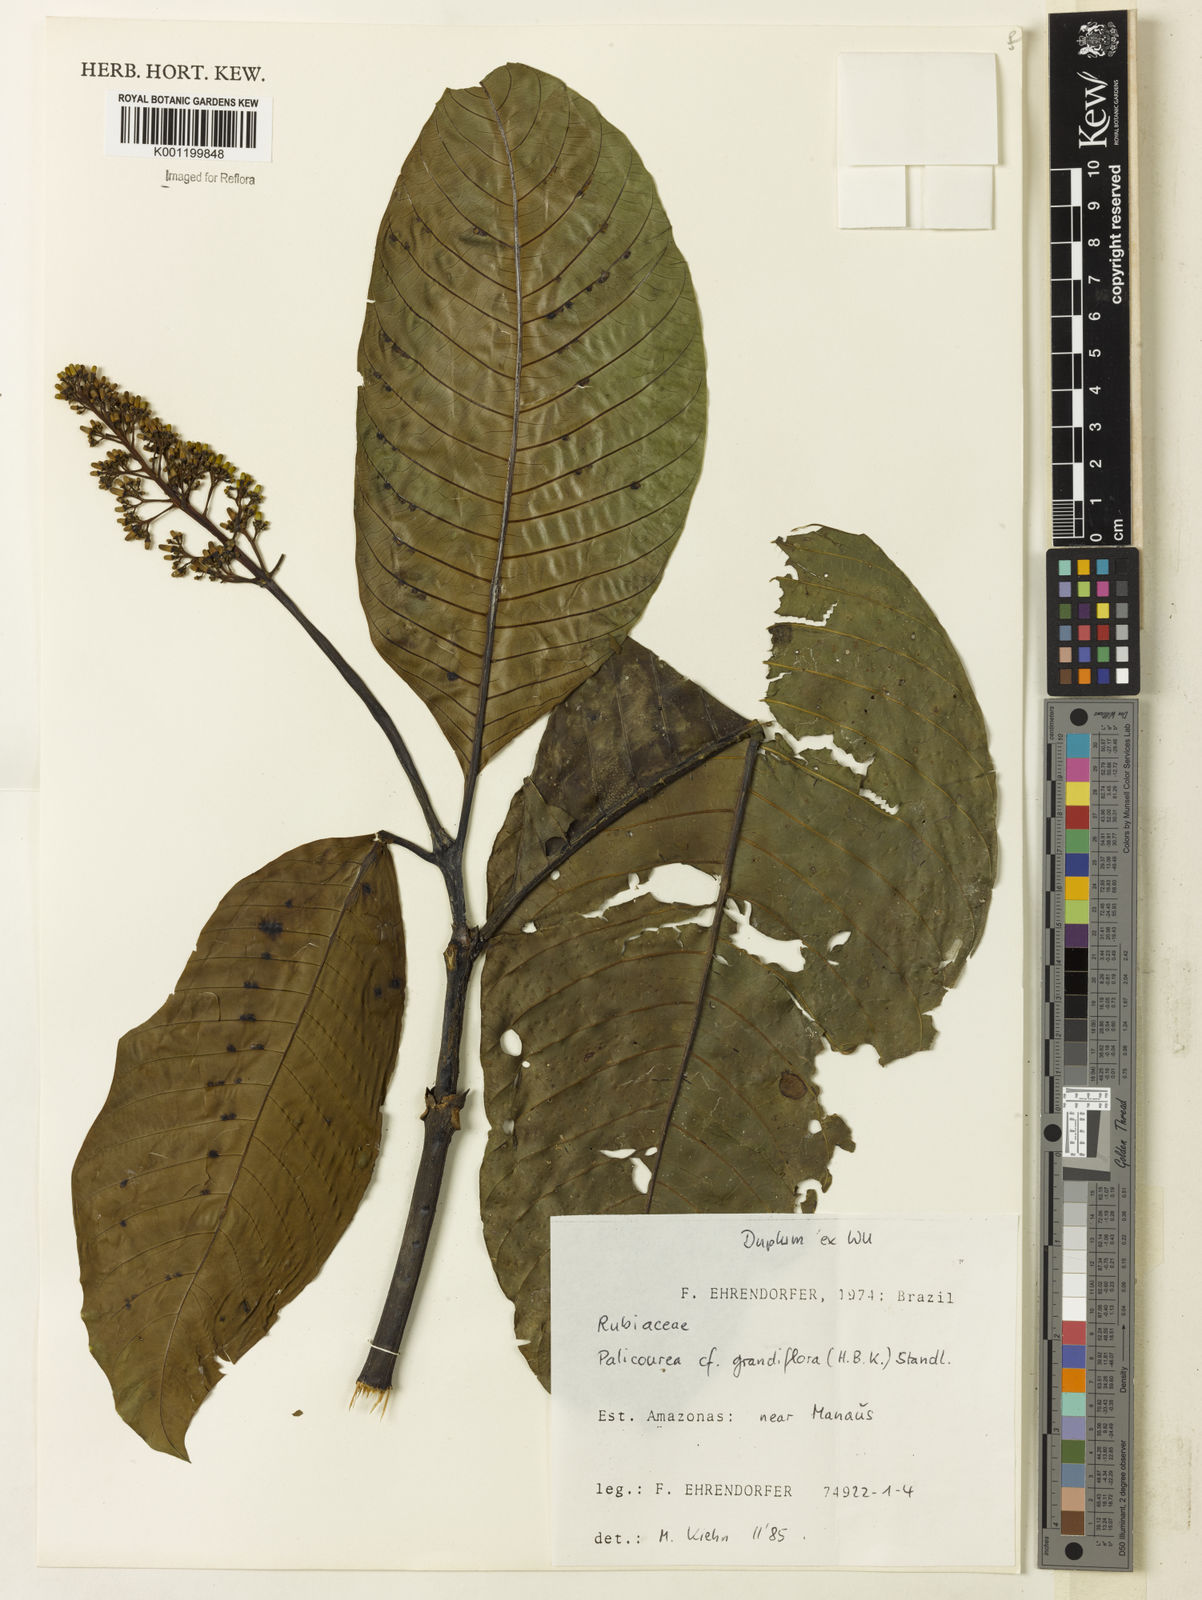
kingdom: Plantae
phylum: Tracheophyta
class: Magnoliopsida
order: Gentianales
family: Rubiaceae
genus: Palicourea
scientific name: Palicourea grandifolia
